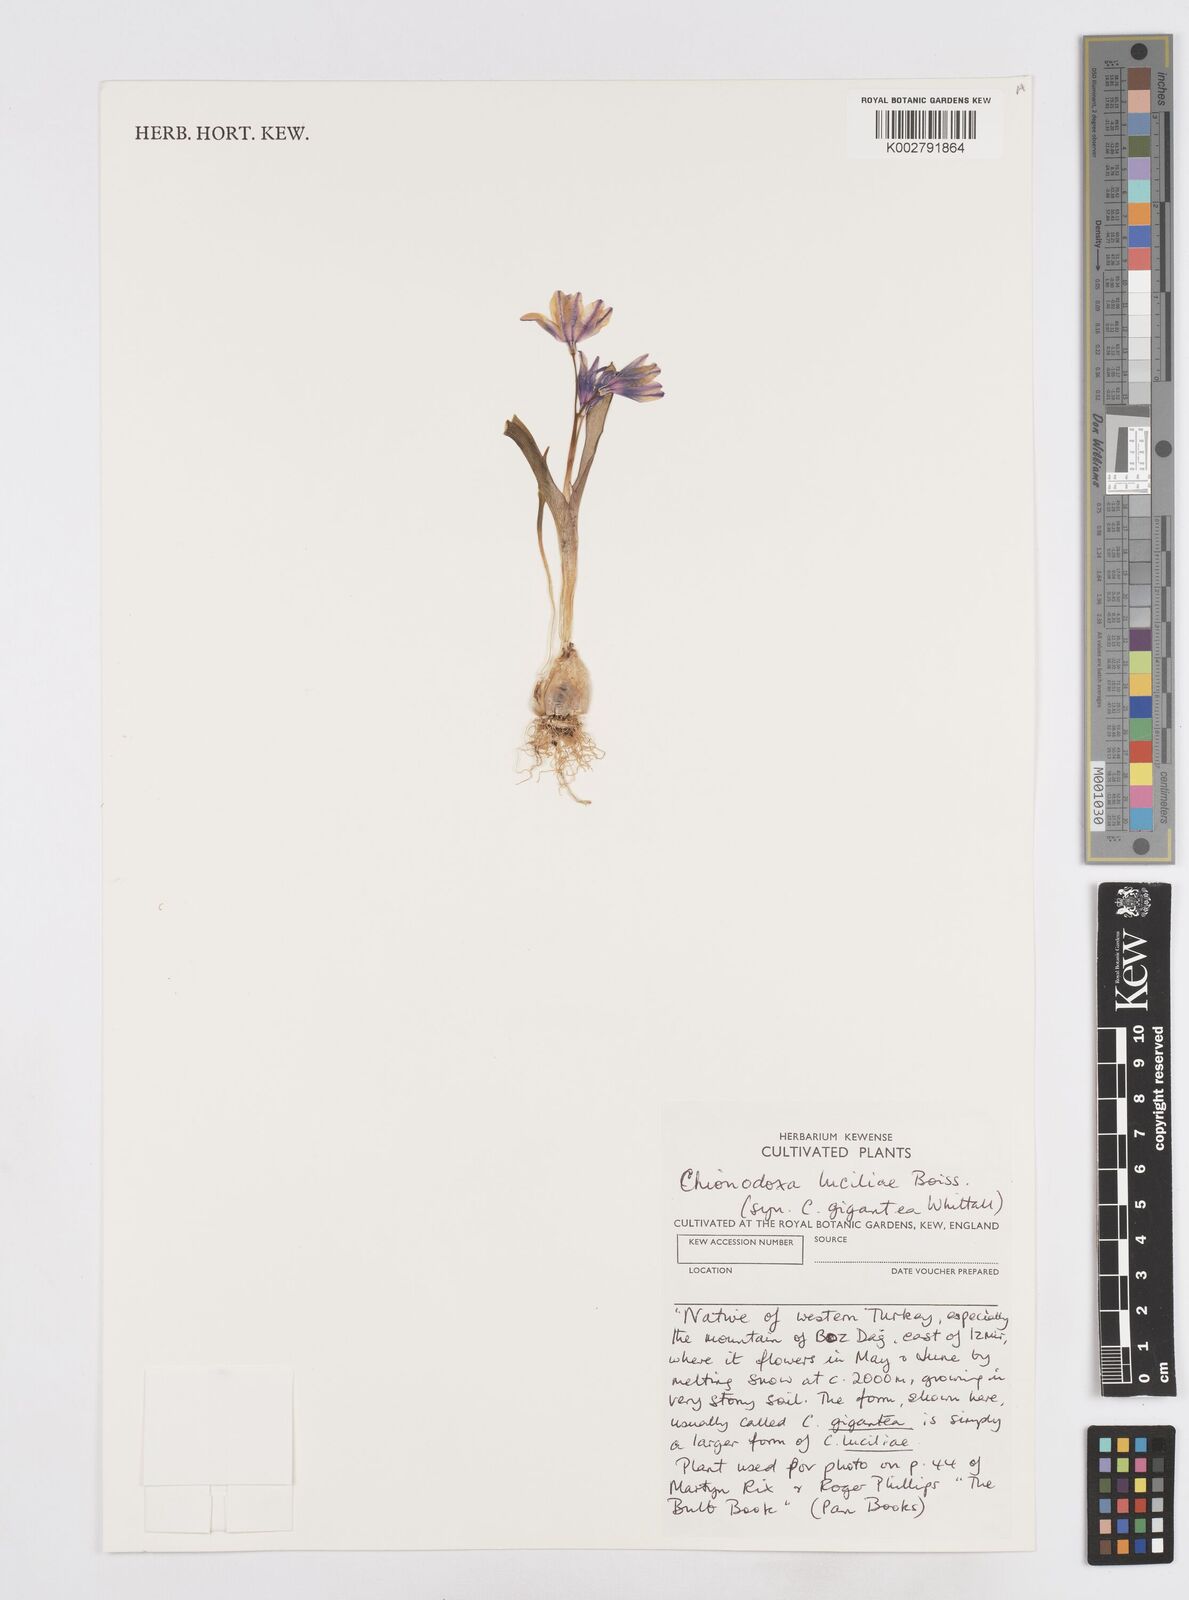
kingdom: Plantae
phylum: Tracheophyta
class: Liliopsida
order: Asparagales
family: Asparagaceae
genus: Scilla
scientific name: Scilla luciliae
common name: Boissier's glory-of-the-snow
